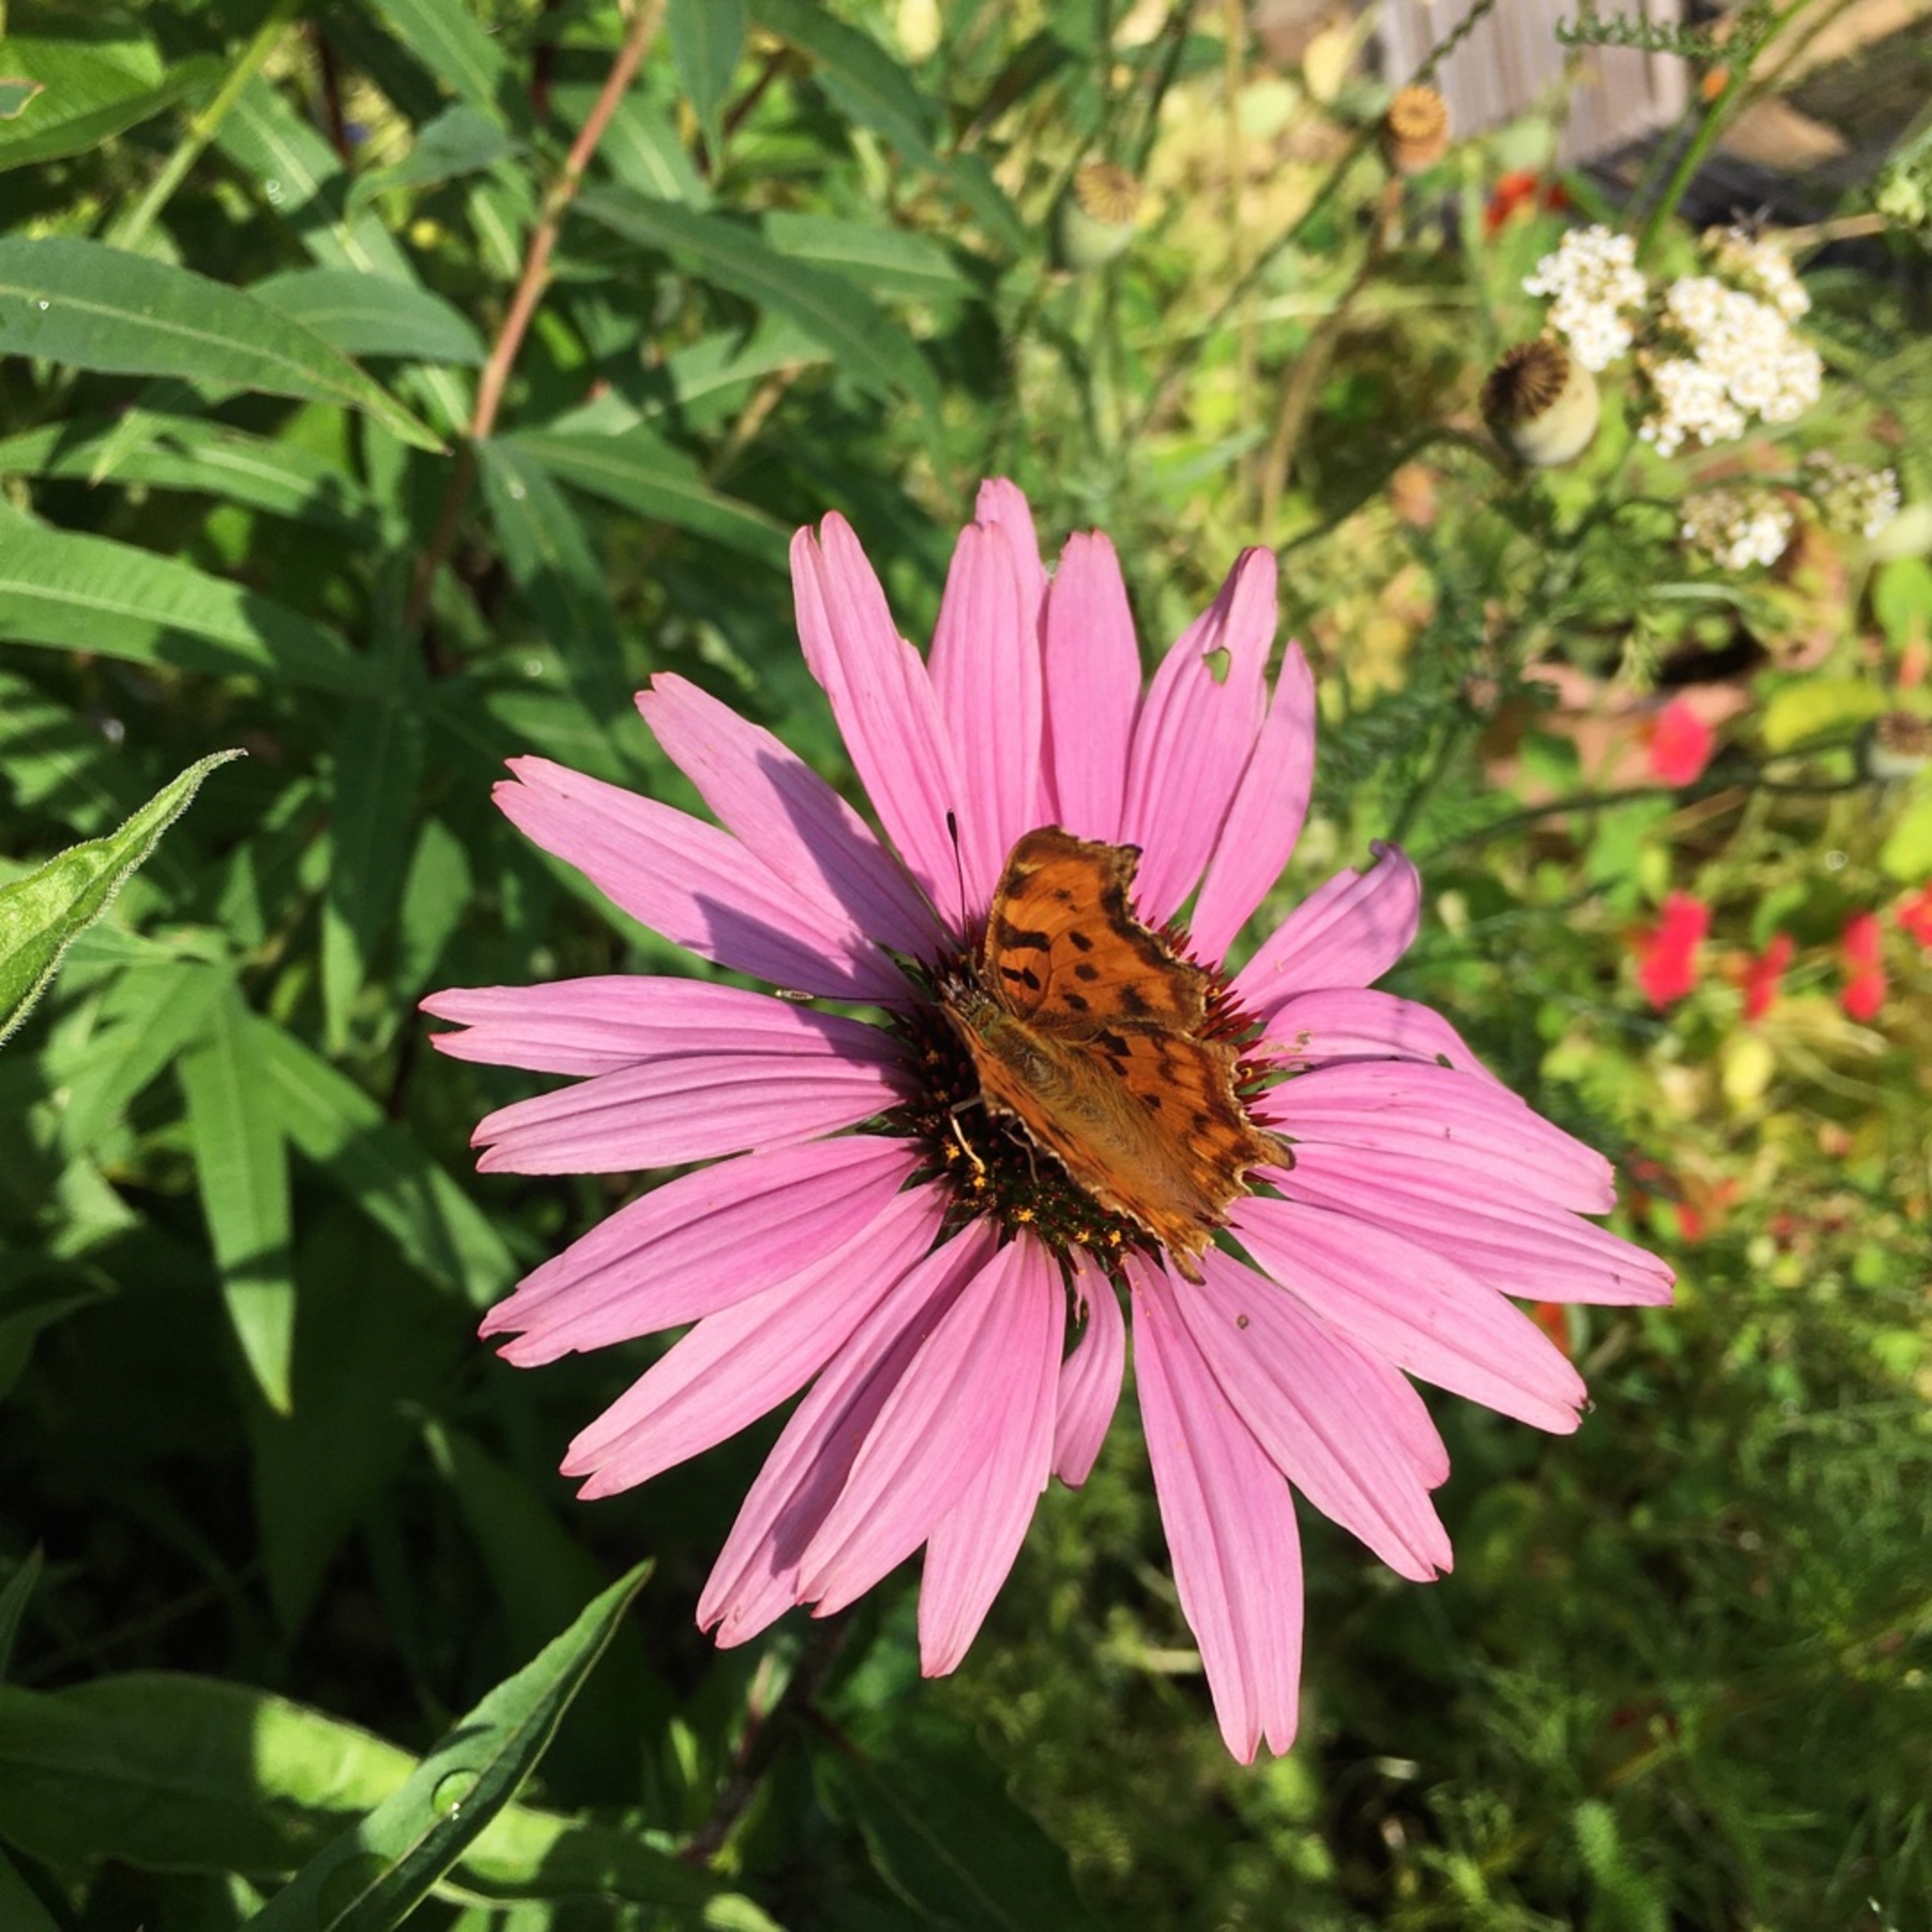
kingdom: Animalia
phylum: Arthropoda
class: Insecta
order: Lepidoptera
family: Nymphalidae
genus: Polygonia
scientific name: Polygonia c-album
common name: Det hvide C
